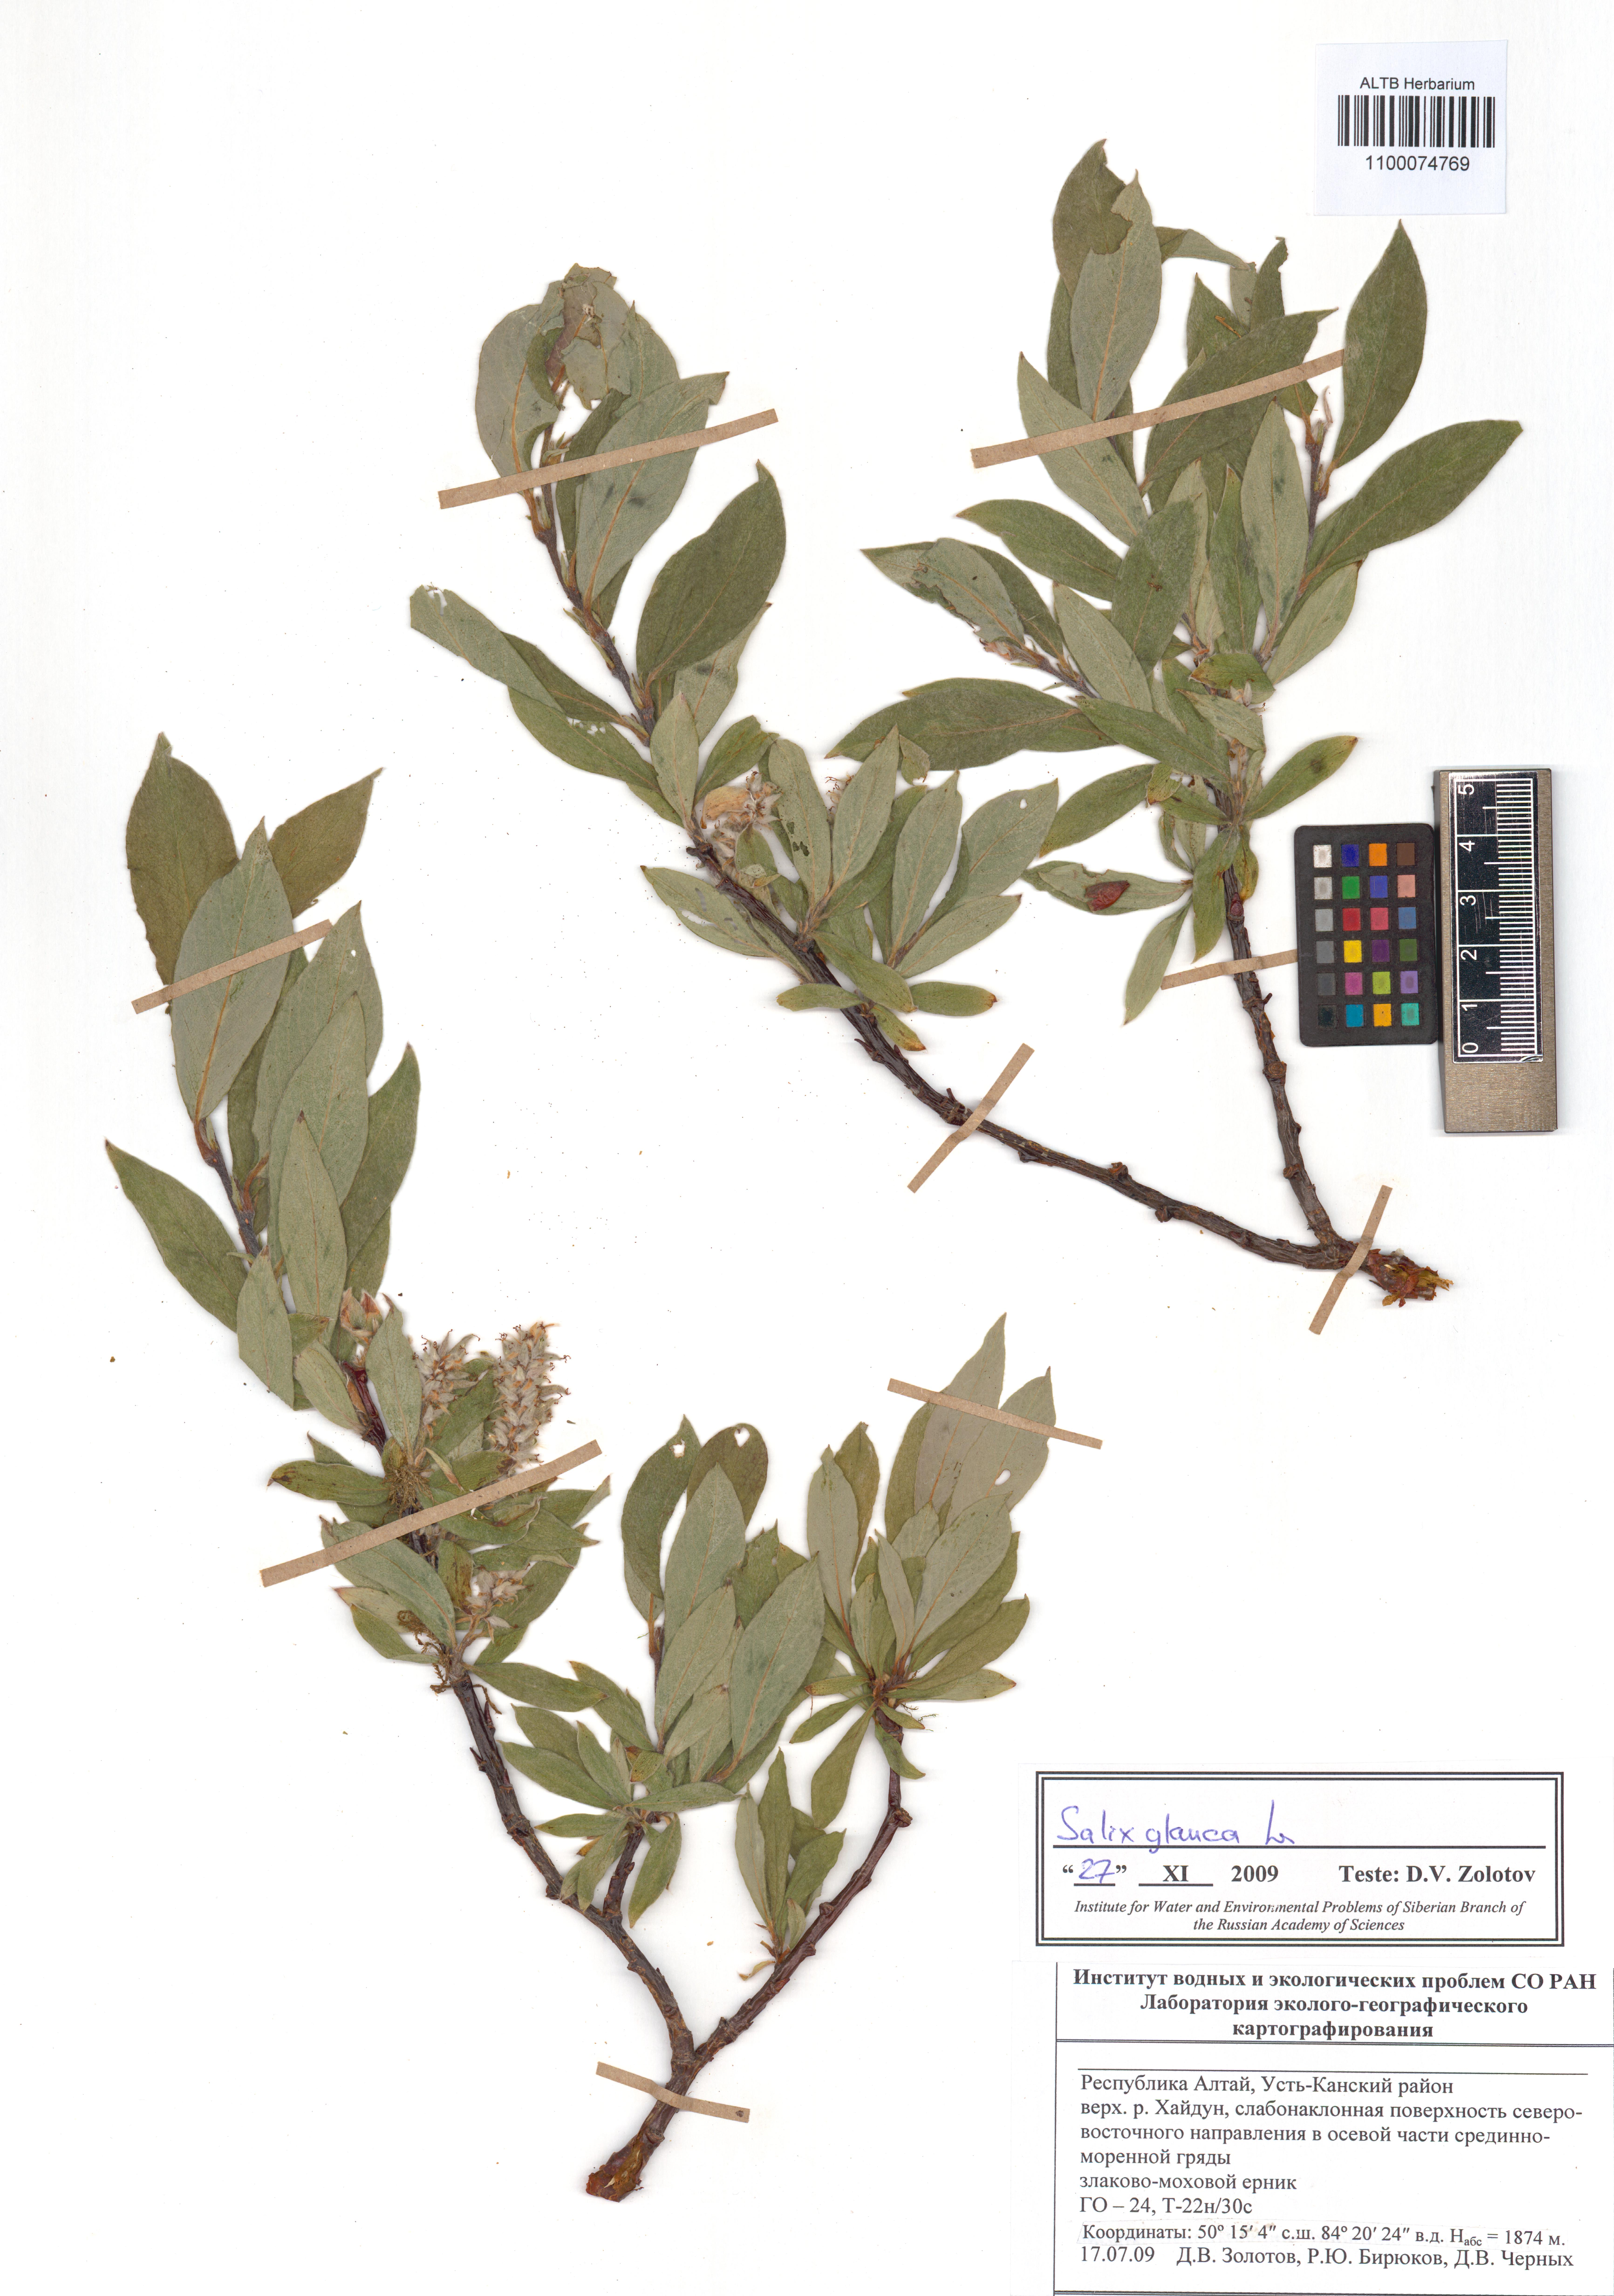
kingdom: Plantae
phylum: Tracheophyta
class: Magnoliopsida
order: Malpighiales
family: Salicaceae
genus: Salix
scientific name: Salix glauca
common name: Glaucous willow
